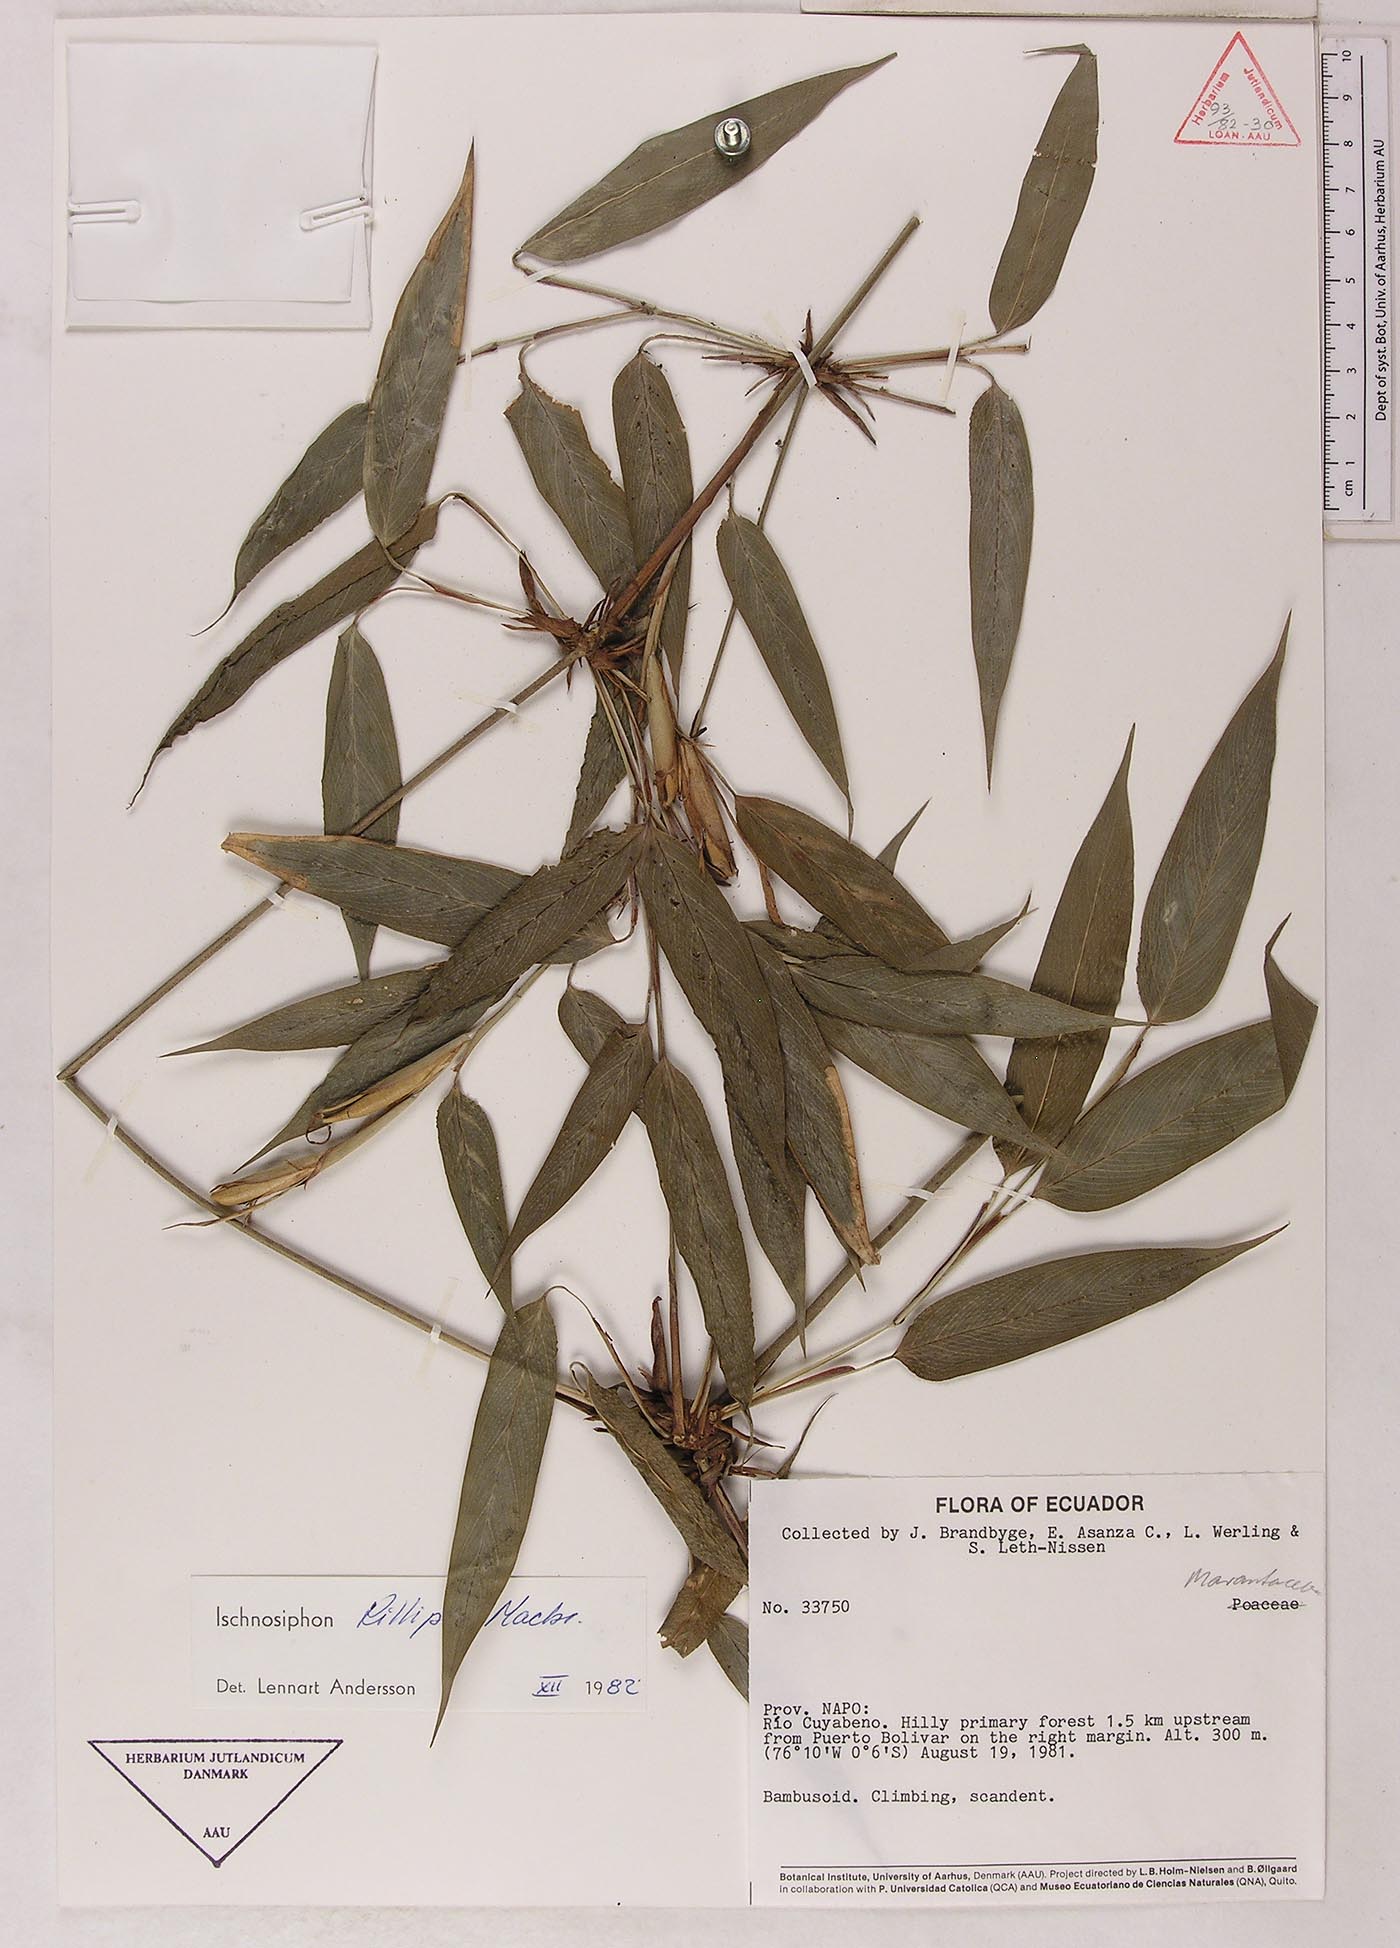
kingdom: Plantae
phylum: Tracheophyta
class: Liliopsida
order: Zingiberales
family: Marantaceae
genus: Ischnosiphon
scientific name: Ischnosiphon killipii
